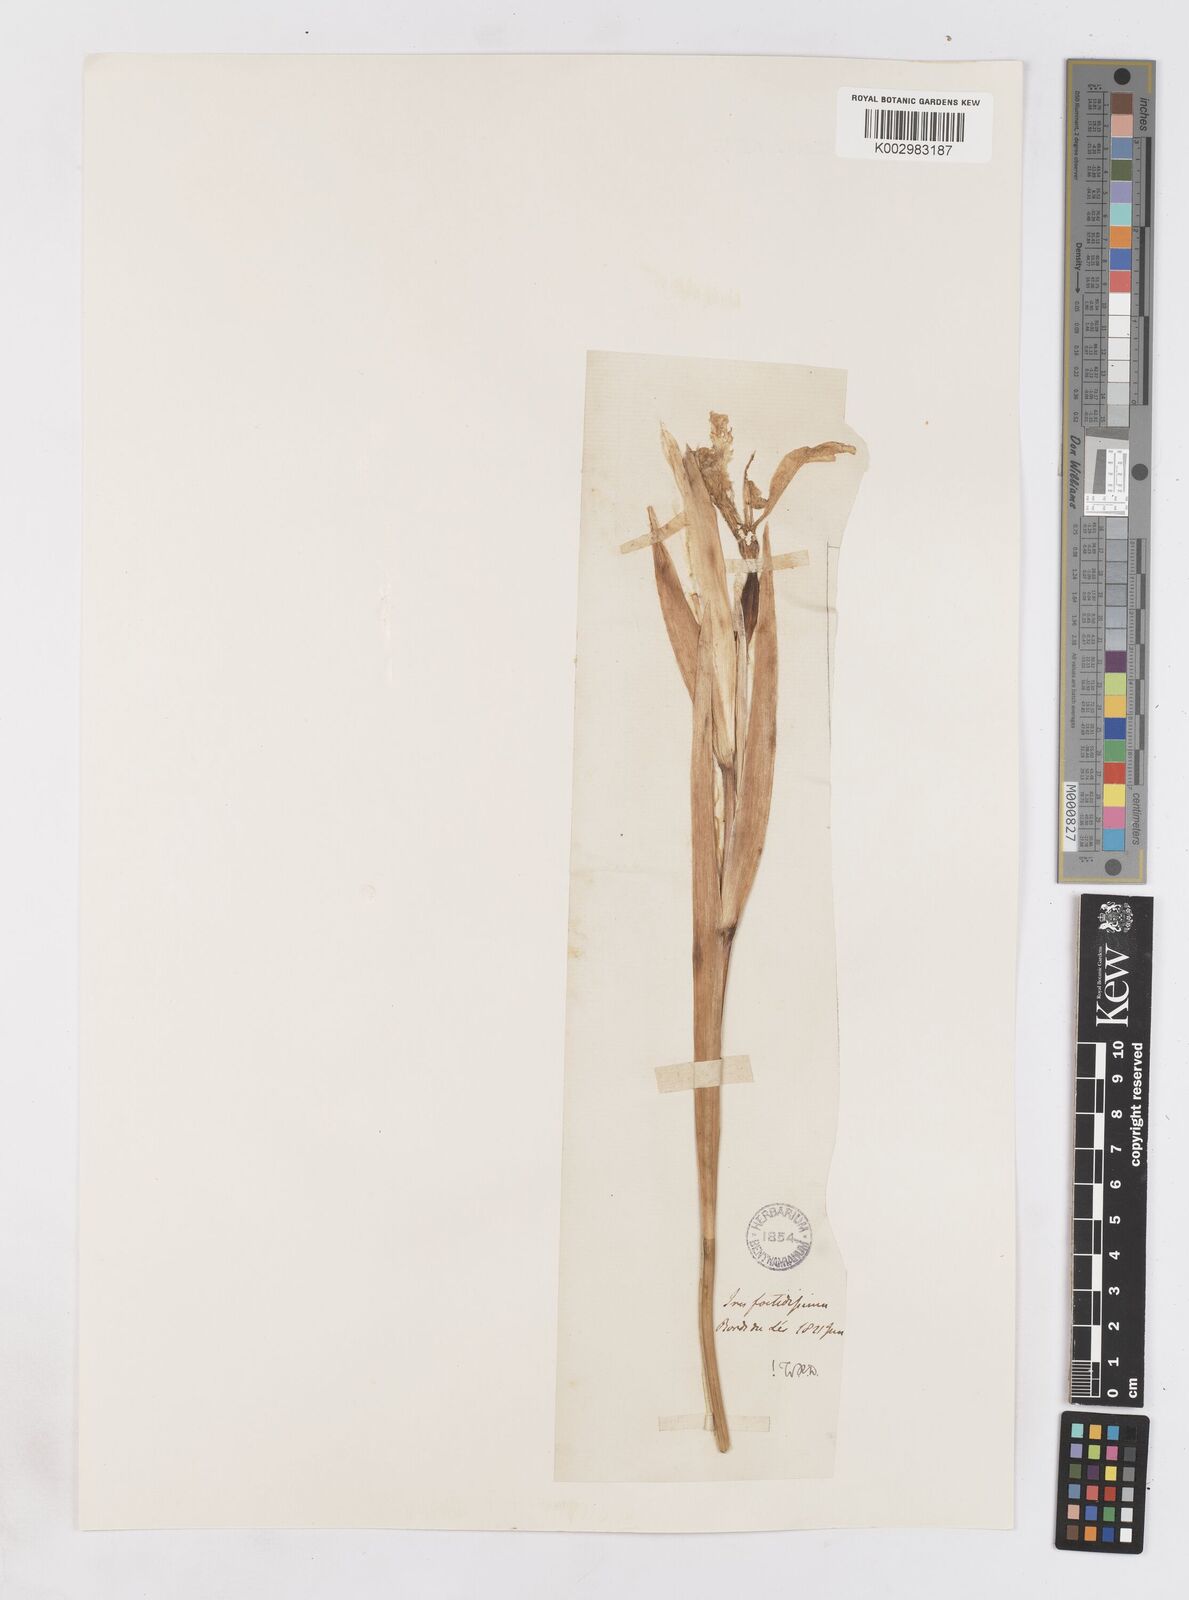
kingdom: Plantae
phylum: Tracheophyta
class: Liliopsida
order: Asparagales
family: Iridaceae
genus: Iris
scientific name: Iris foetidissima
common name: Stinking iris
